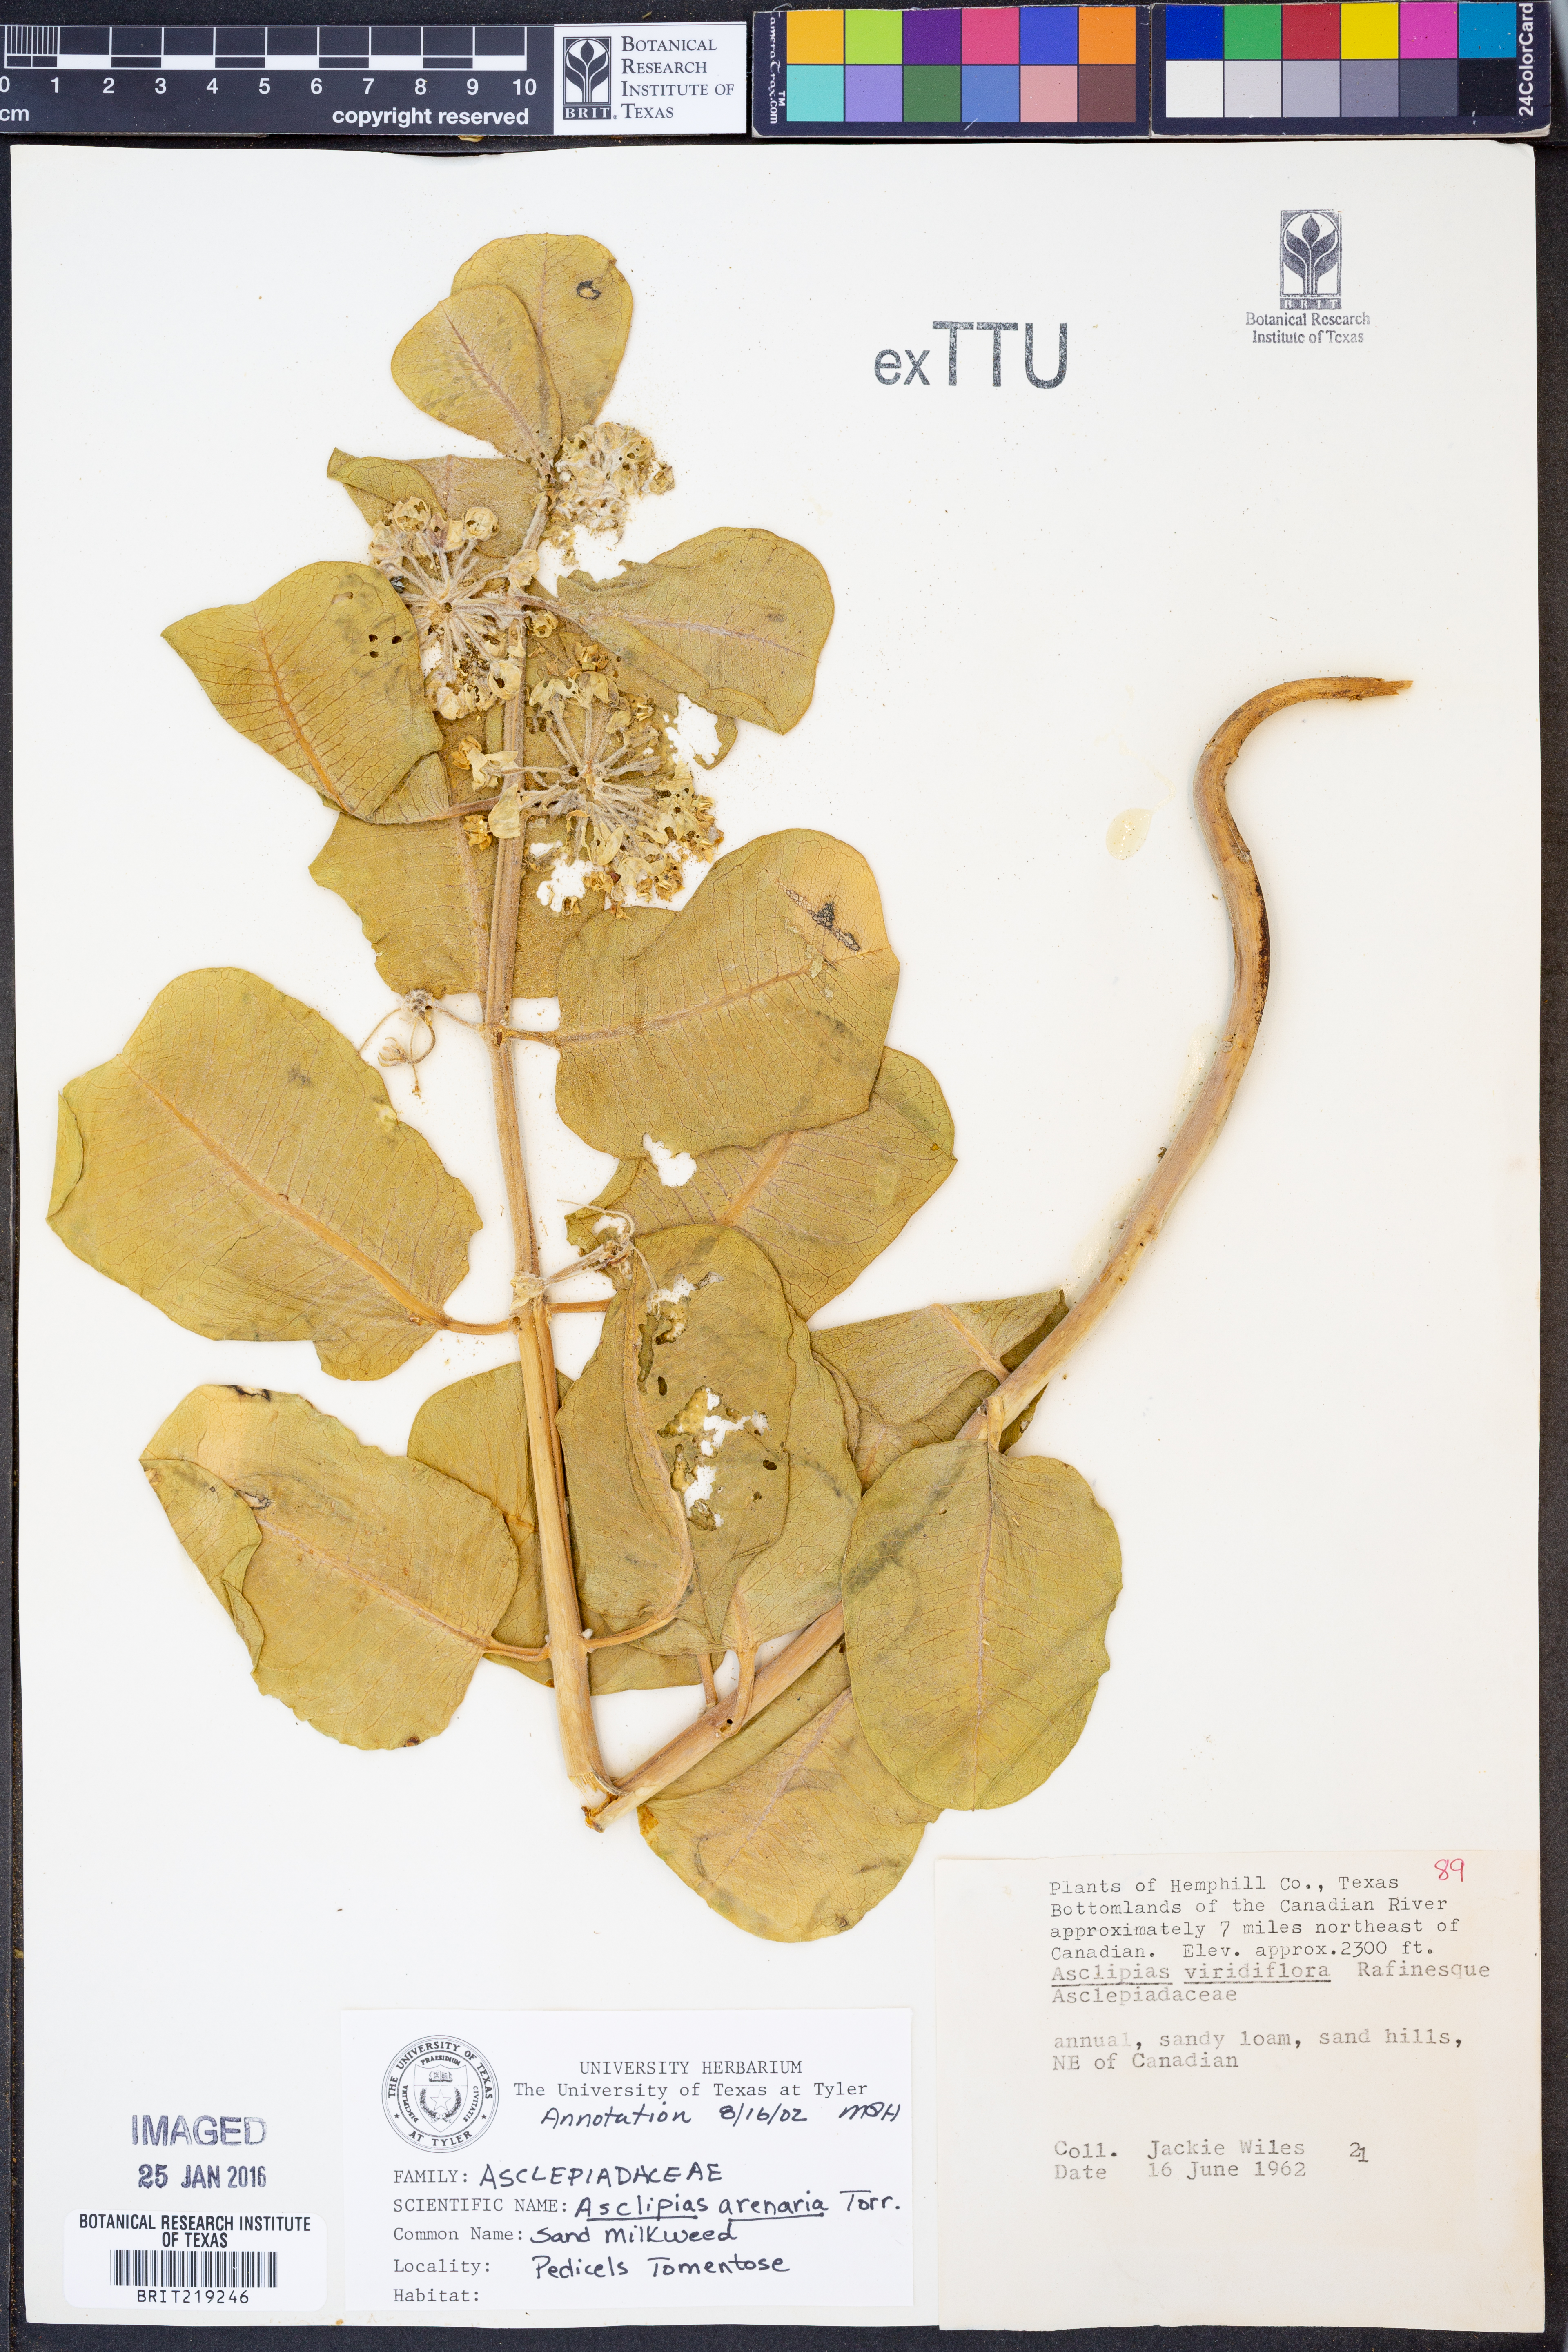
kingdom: Plantae
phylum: Tracheophyta
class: Magnoliopsida
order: Gentianales
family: Apocynaceae
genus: Asclepias
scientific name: Asclepias arenaria
